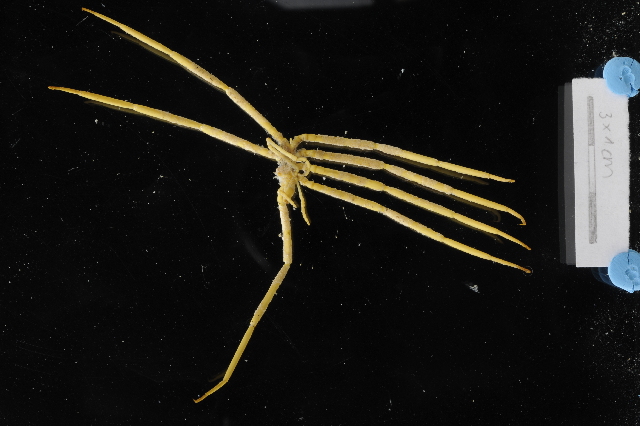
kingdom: Animalia
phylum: Arthropoda
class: Pycnogonida
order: Pantopoda
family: Colossendeidae
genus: Colossendeis
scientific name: Colossendeis glacialis
